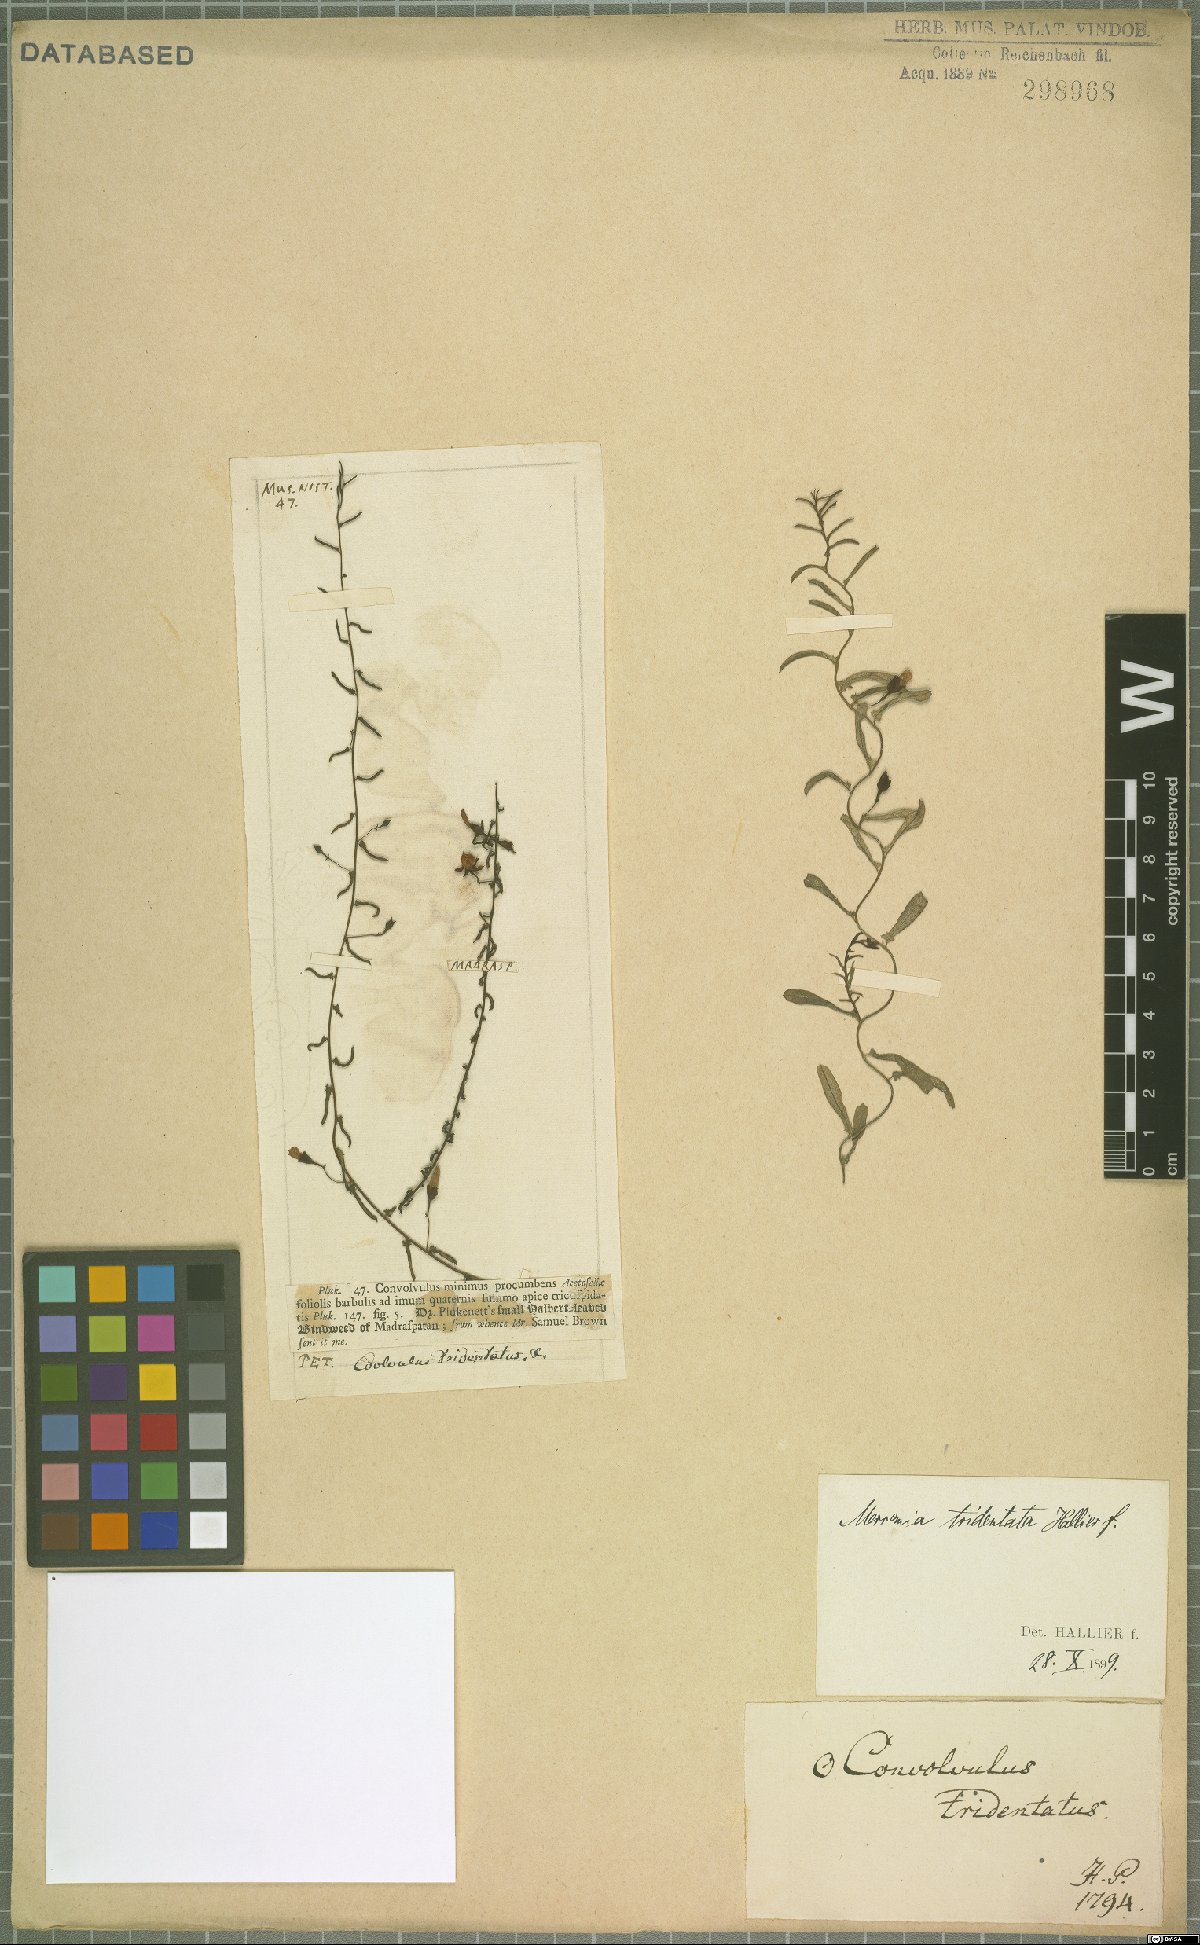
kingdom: Plantae
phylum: Tracheophyta
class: Magnoliopsida
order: Solanales
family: Convolvulaceae
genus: Xenostegia
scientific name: Xenostegia tridentata
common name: African morningvine
